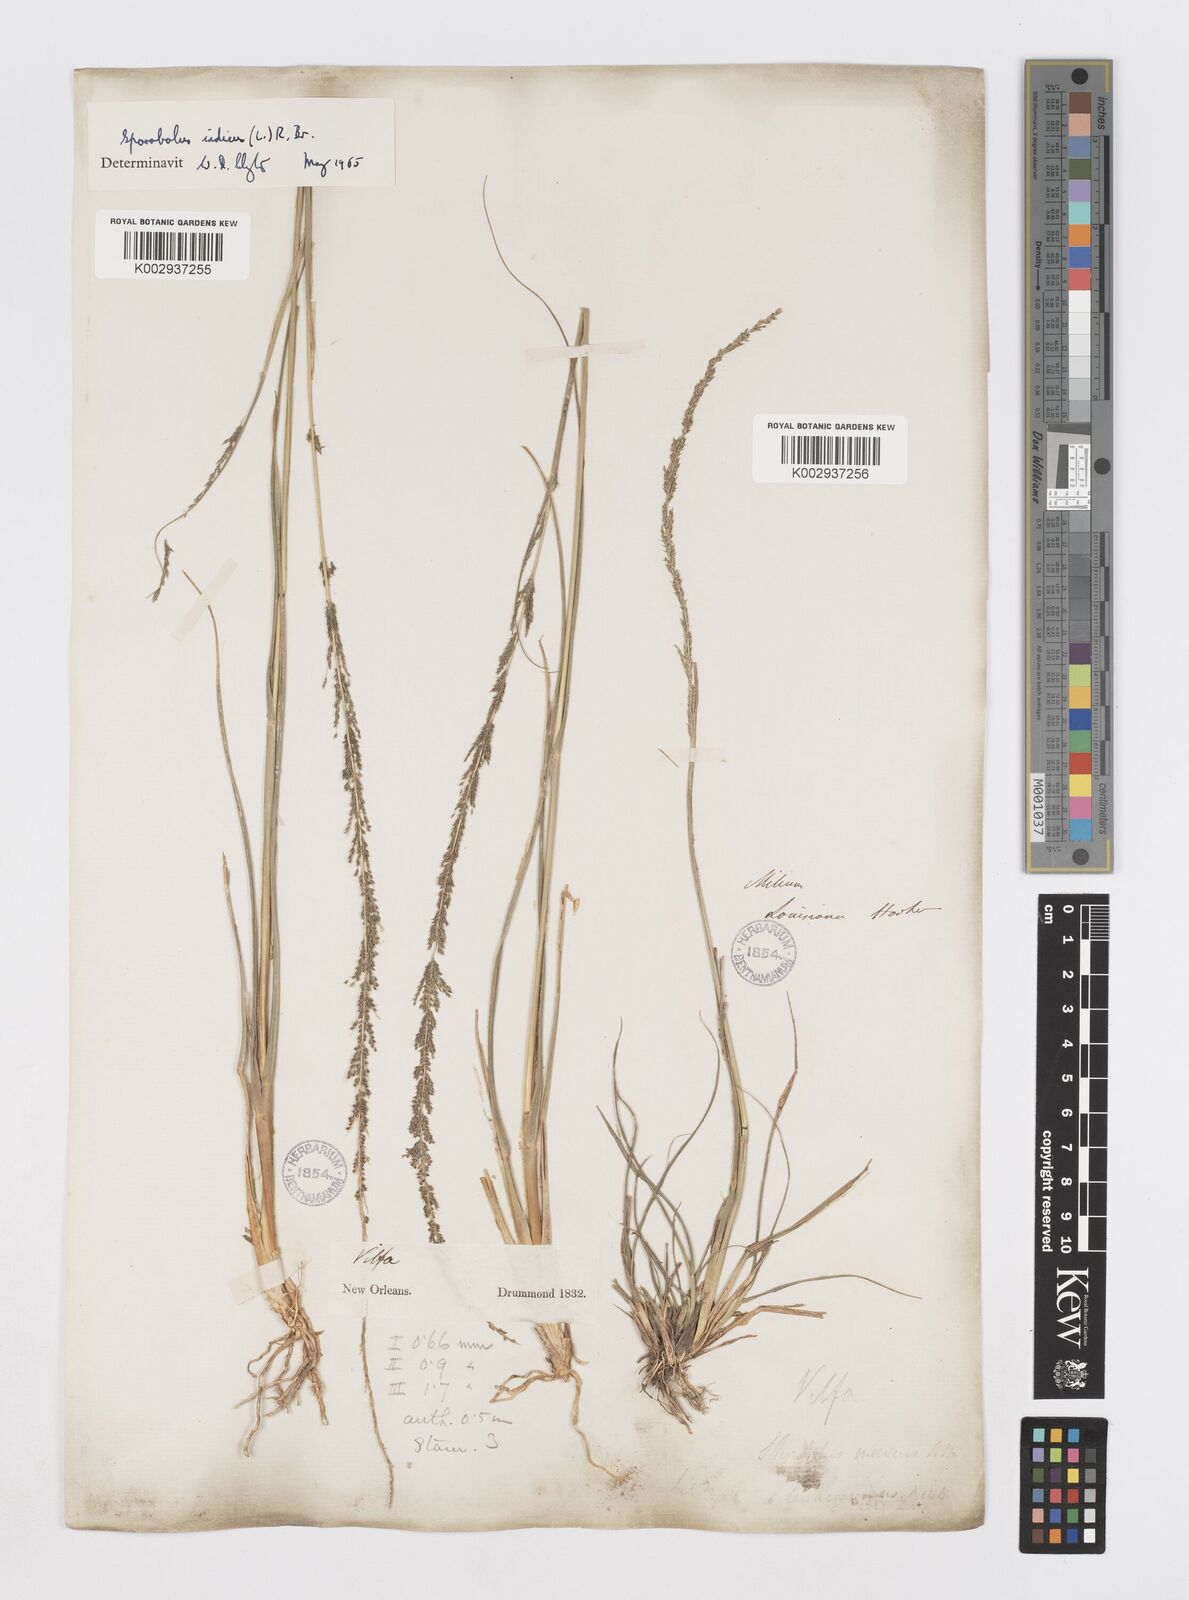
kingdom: Plantae
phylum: Tracheophyta
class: Liliopsida
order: Poales
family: Poaceae
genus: Sporobolus
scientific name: Sporobolus indicus
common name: Smut grass
